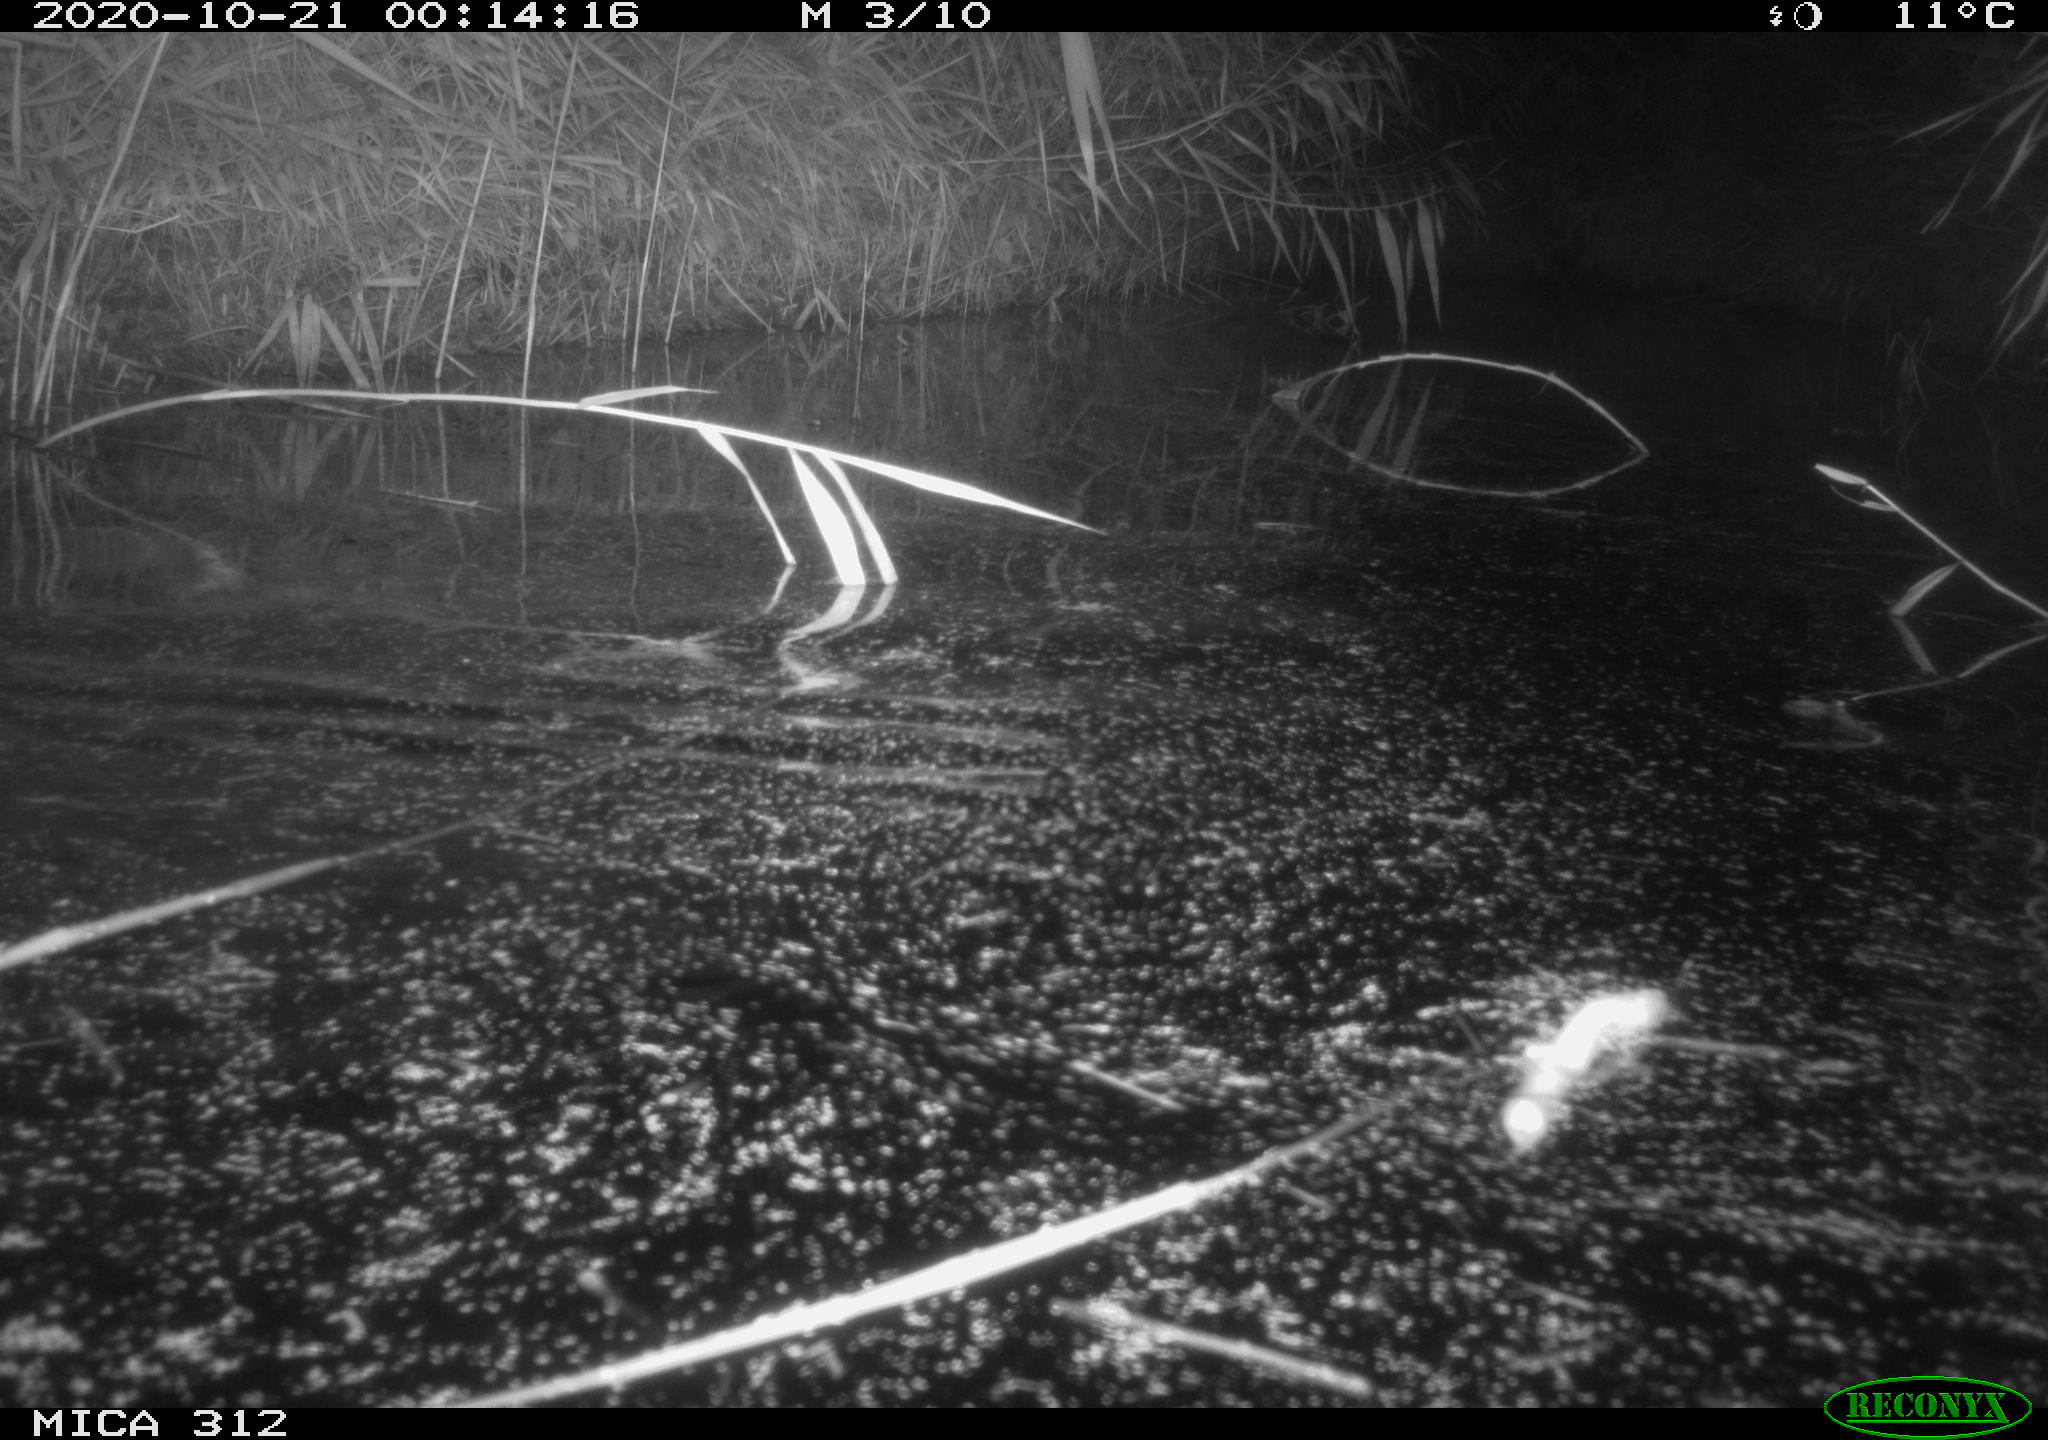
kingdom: Animalia
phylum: Chordata
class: Mammalia
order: Rodentia
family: Muridae
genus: Rattus
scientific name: Rattus norvegicus
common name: Brown rat
